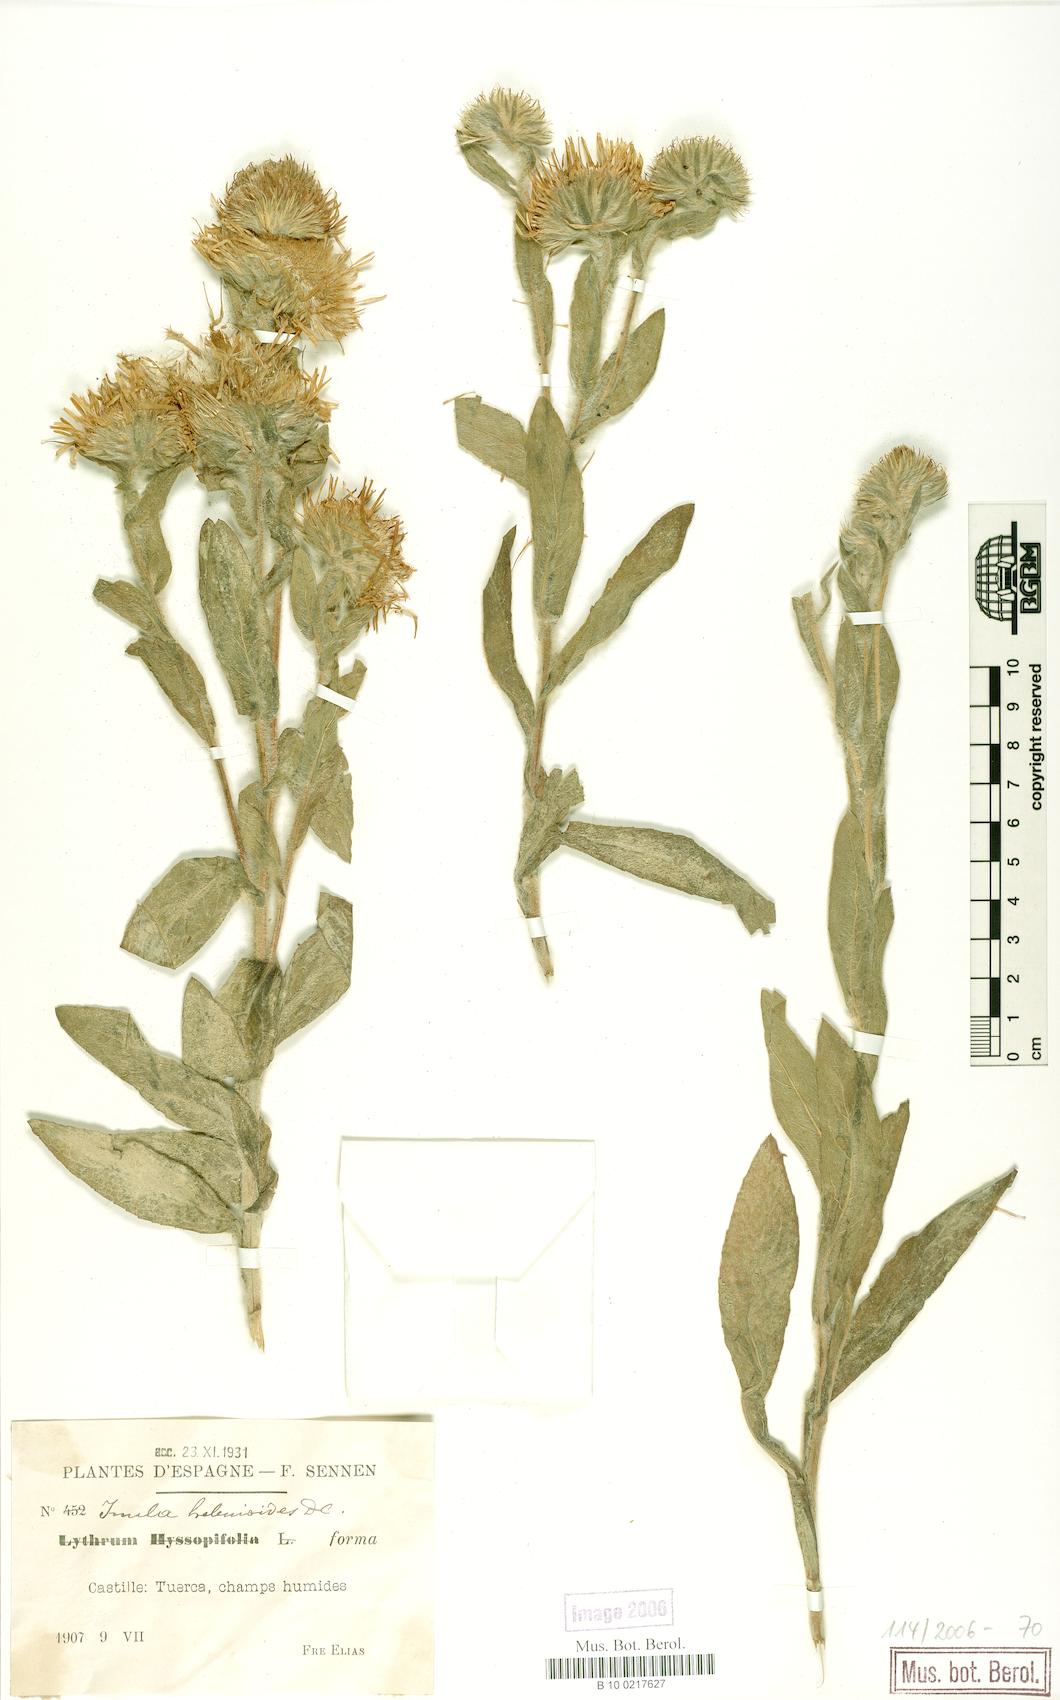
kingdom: Plantae
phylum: Tracheophyta
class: Magnoliopsida
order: Asterales
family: Asteraceae
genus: Pentanema
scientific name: Pentanema helenioides
